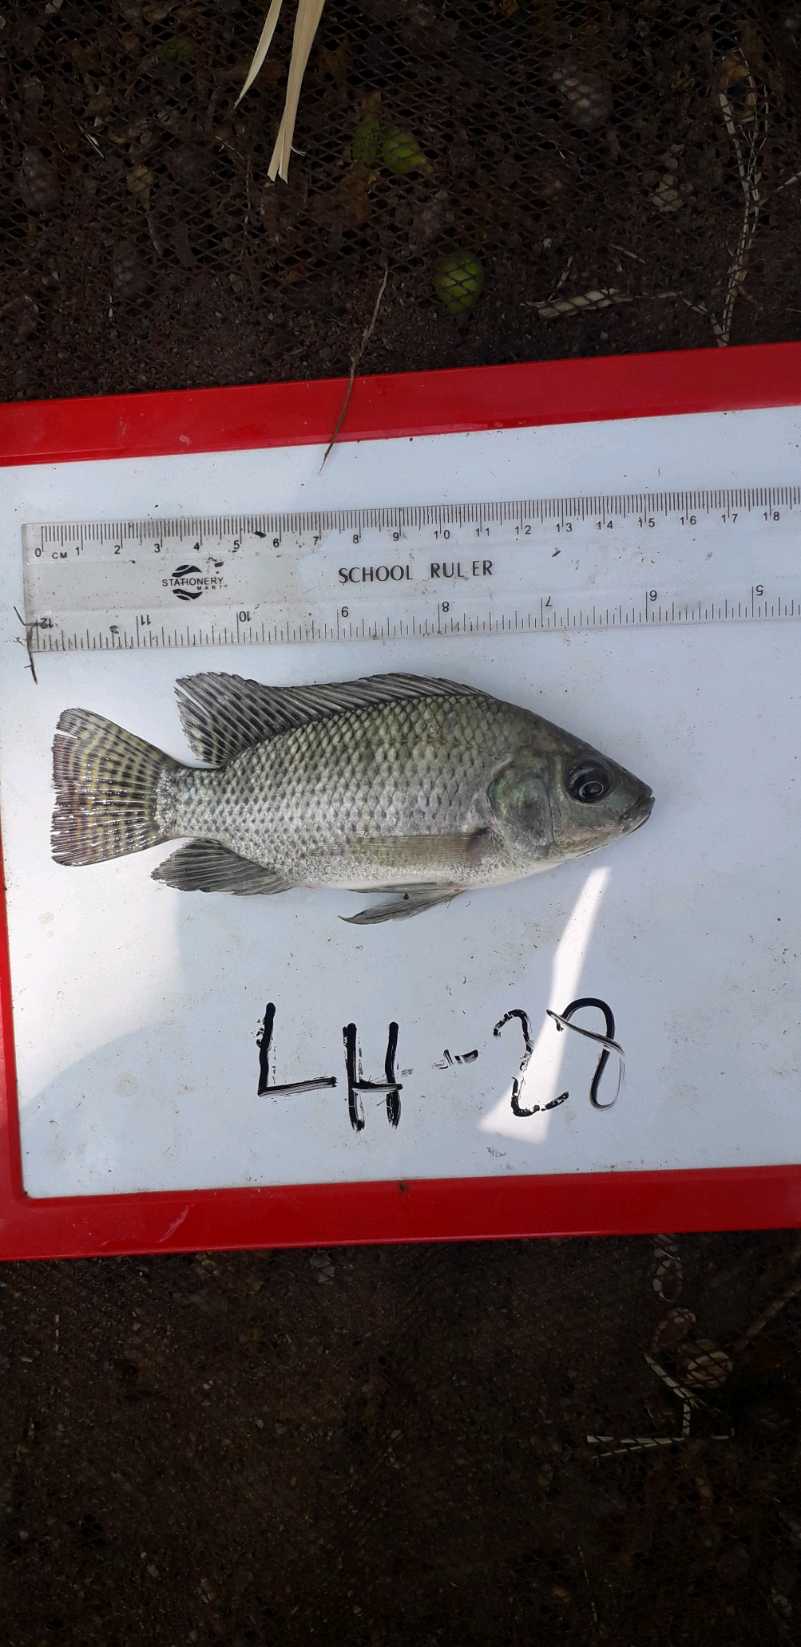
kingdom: Animalia
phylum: Chordata
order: Perciformes
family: Cichlidae
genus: Oreochromis
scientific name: Oreochromis niloticus
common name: Nile tilapia
